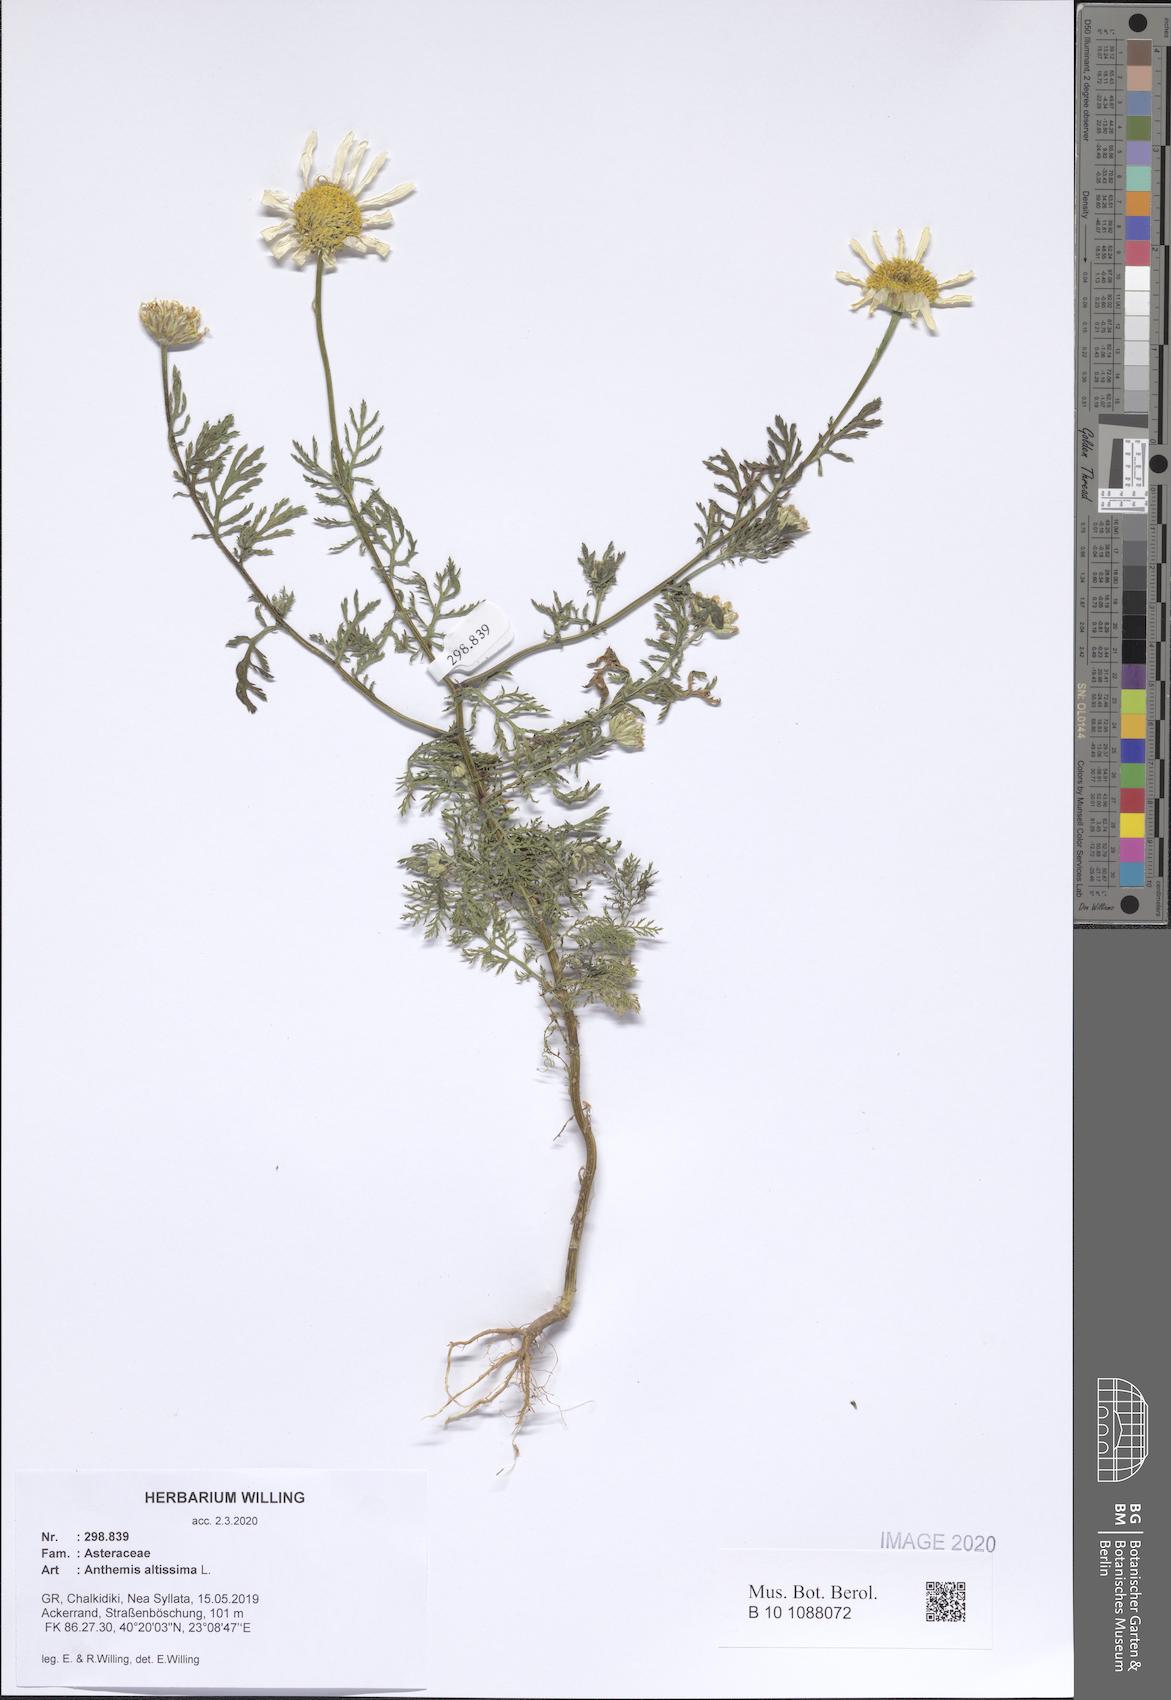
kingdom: Plantae
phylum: Tracheophyta
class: Magnoliopsida
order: Asterales
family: Asteraceae
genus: Cota
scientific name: Cota altissima
